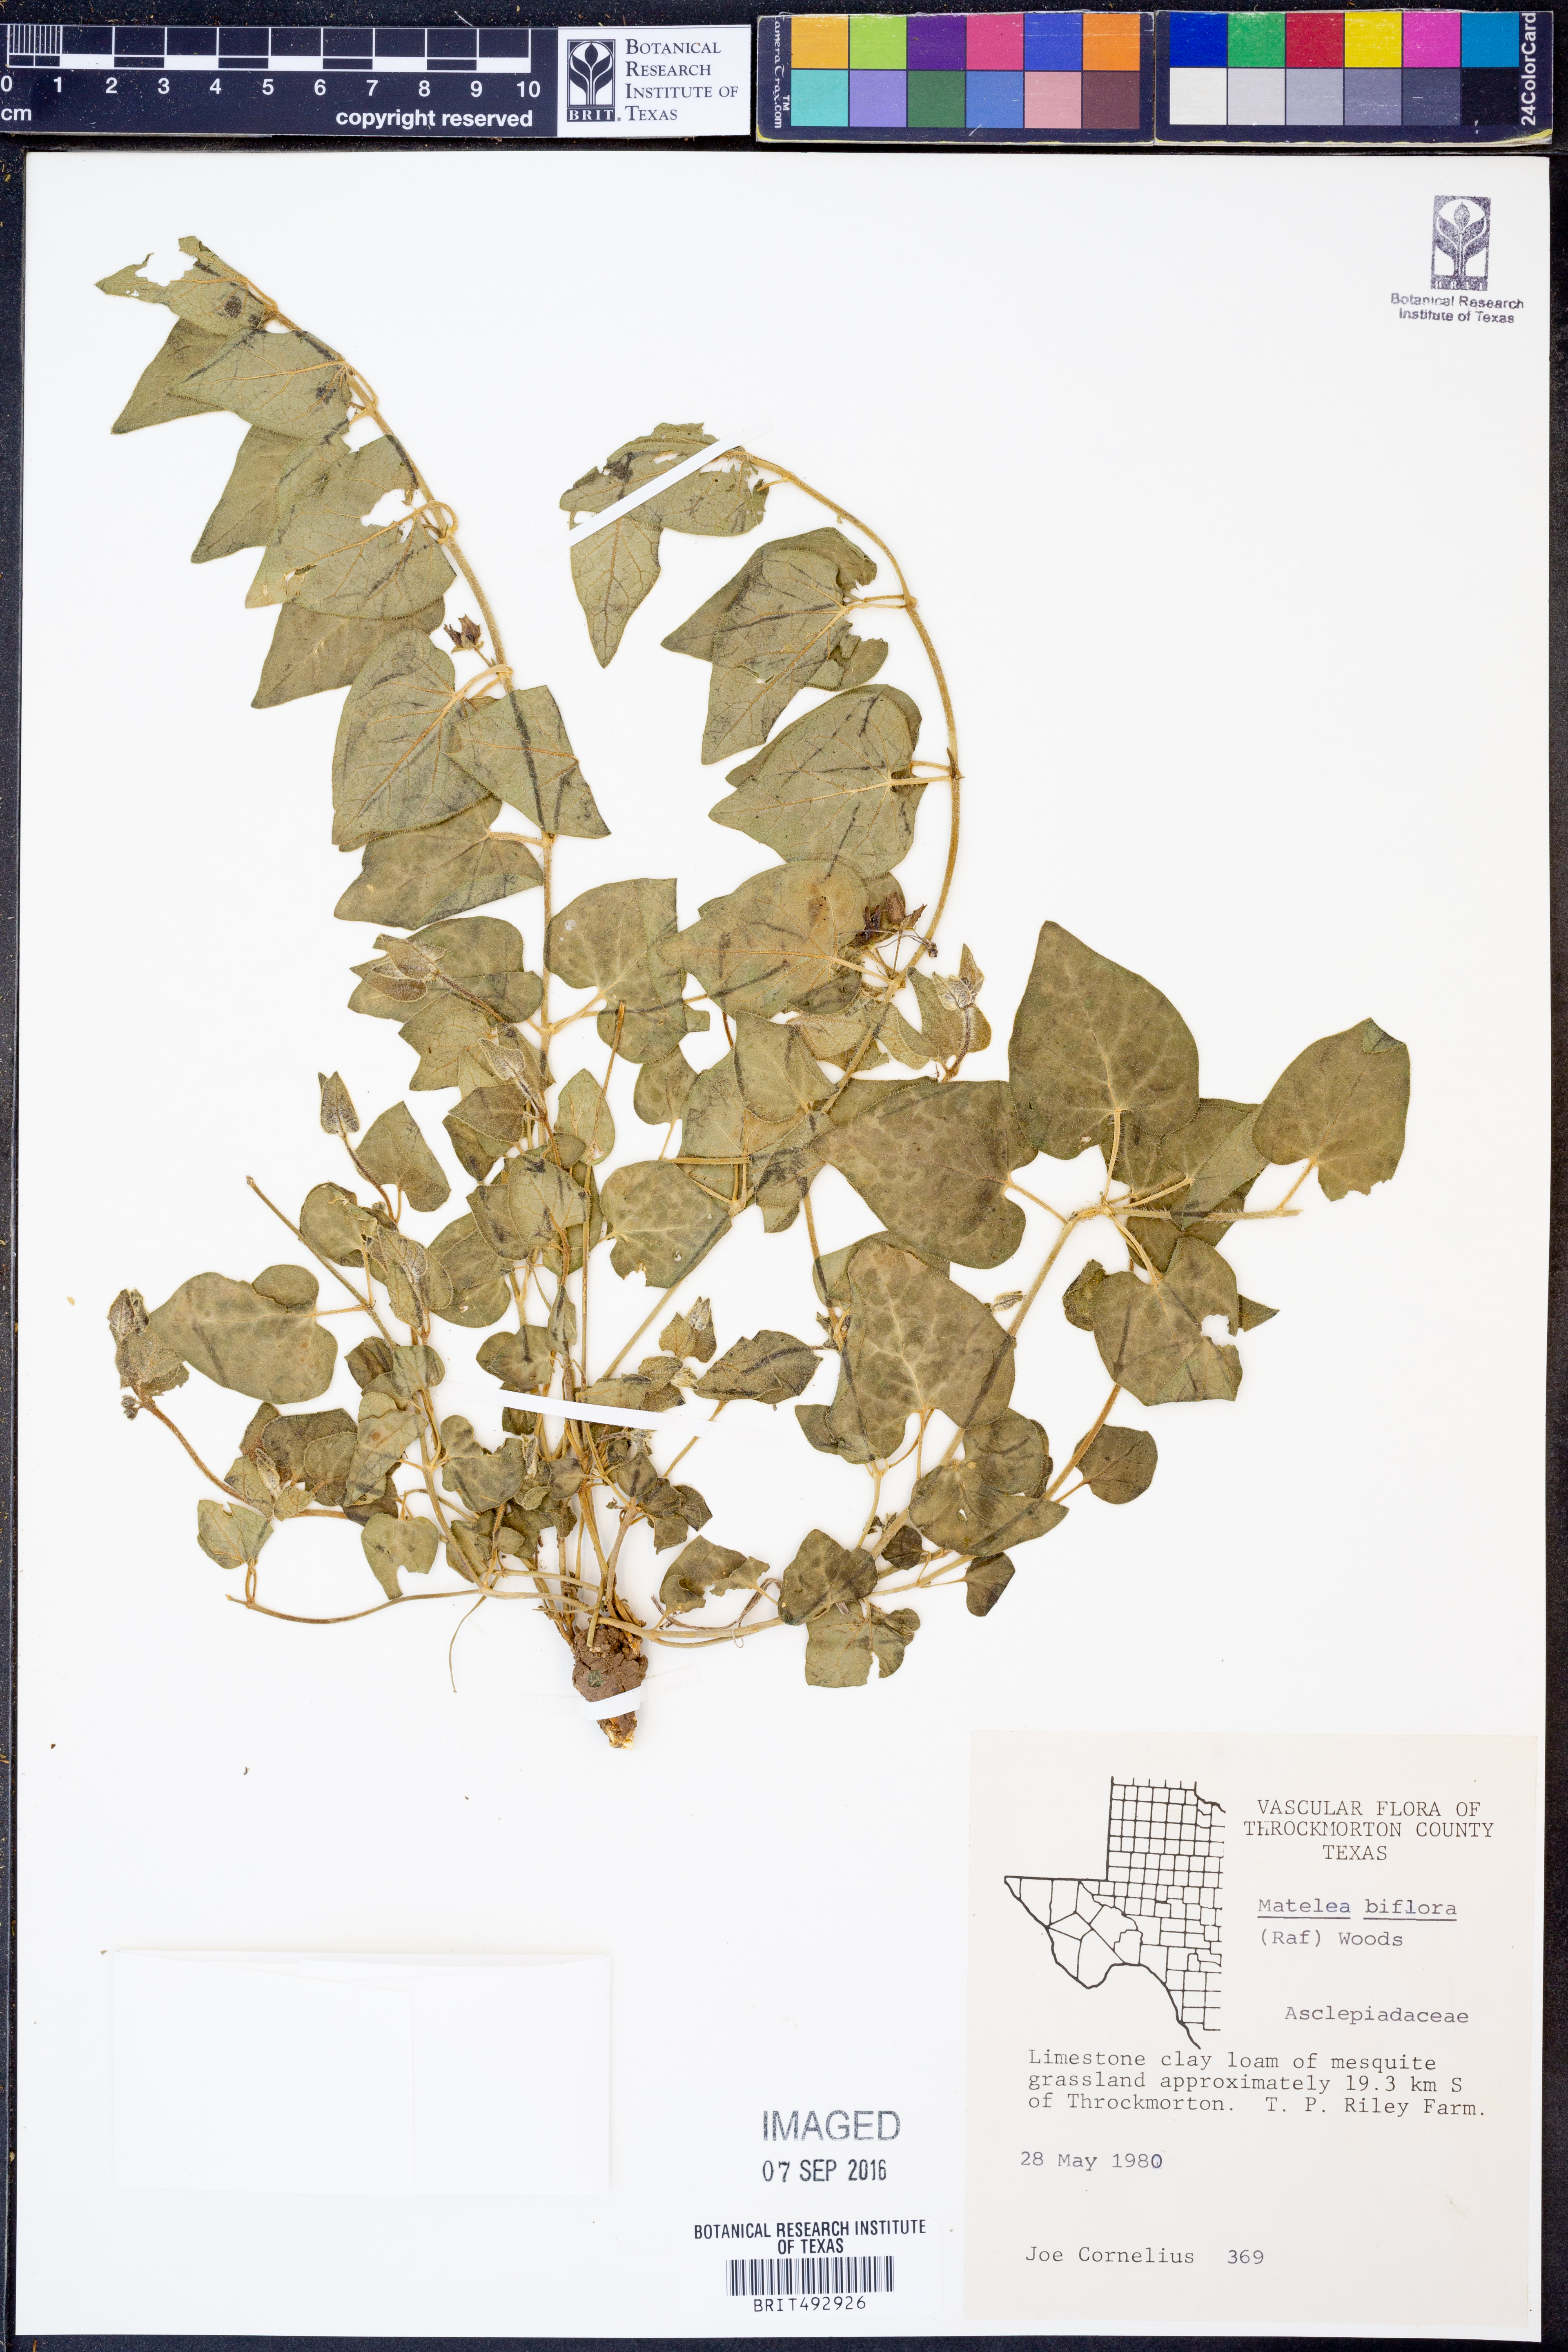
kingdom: Plantae
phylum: Tracheophyta
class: Magnoliopsida
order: Gentianales
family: Apocynaceae
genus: Chthamalia
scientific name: Chthamalia biflora
